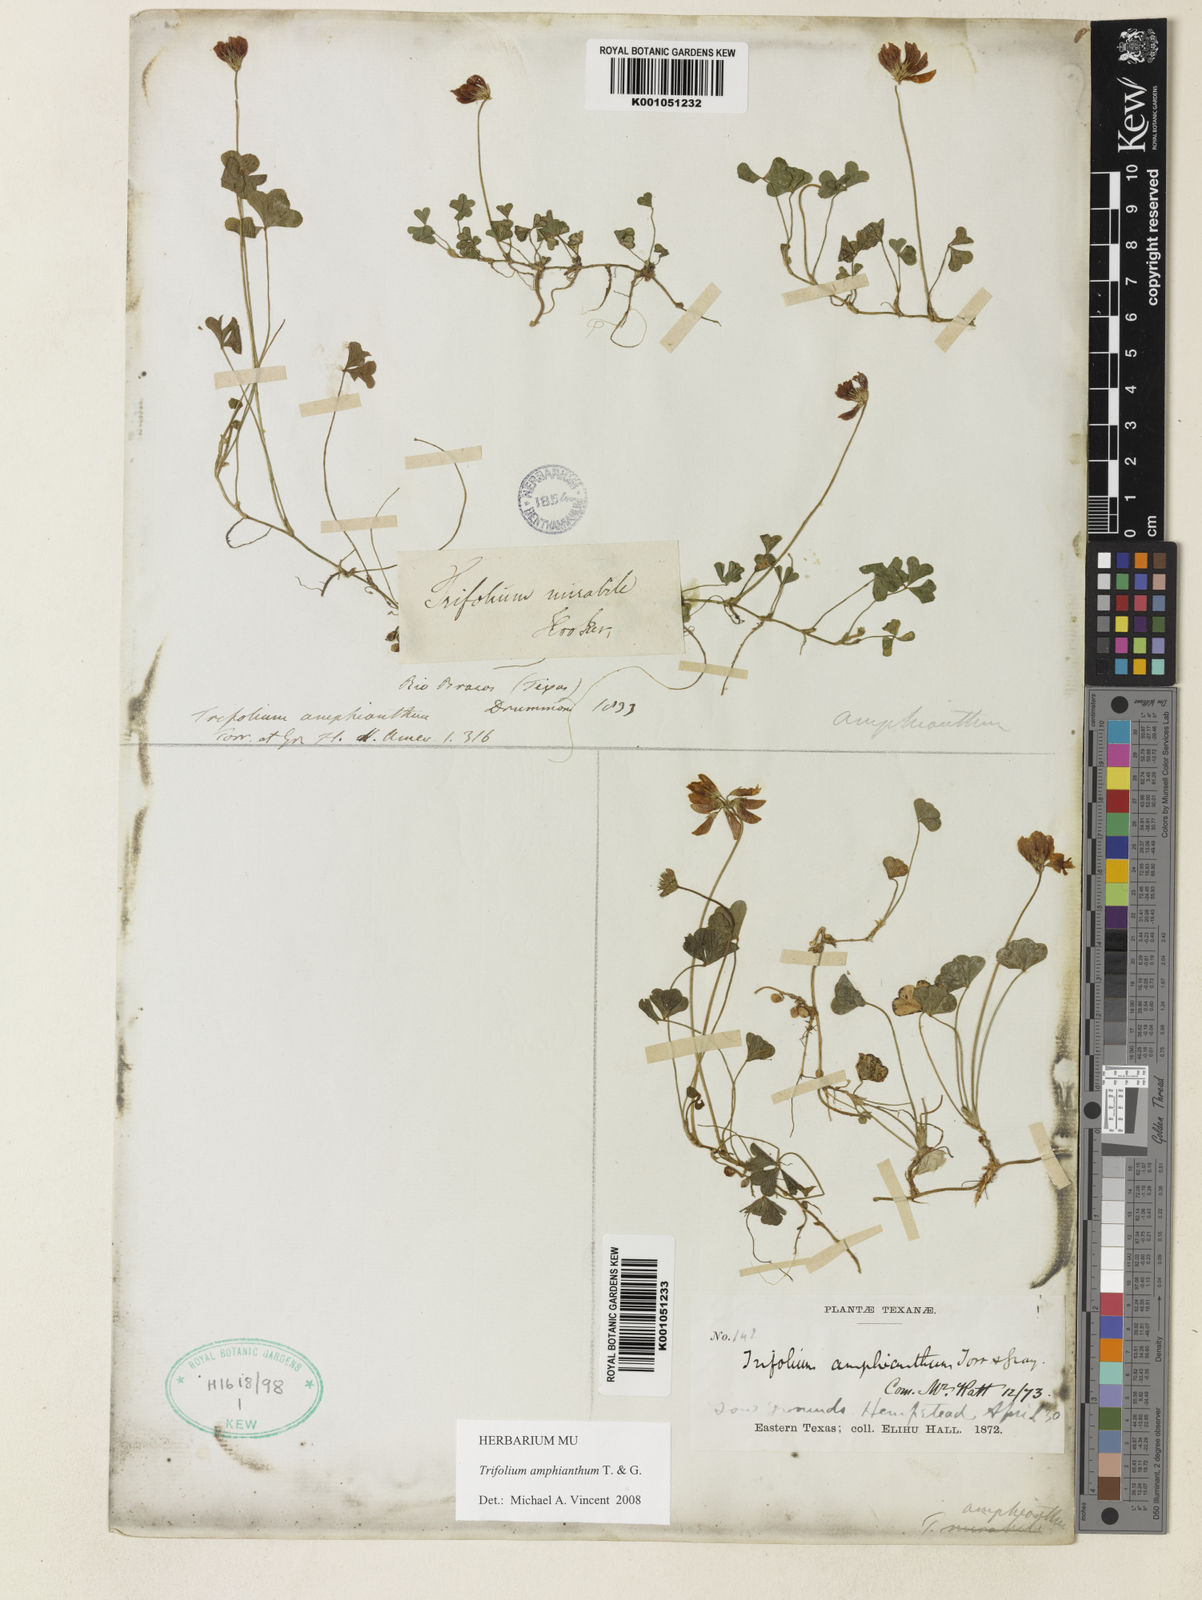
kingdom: Plantae
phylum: Tracheophyta
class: Magnoliopsida
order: Fabales
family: Fabaceae
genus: Trifolium
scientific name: Trifolium amphianthum
